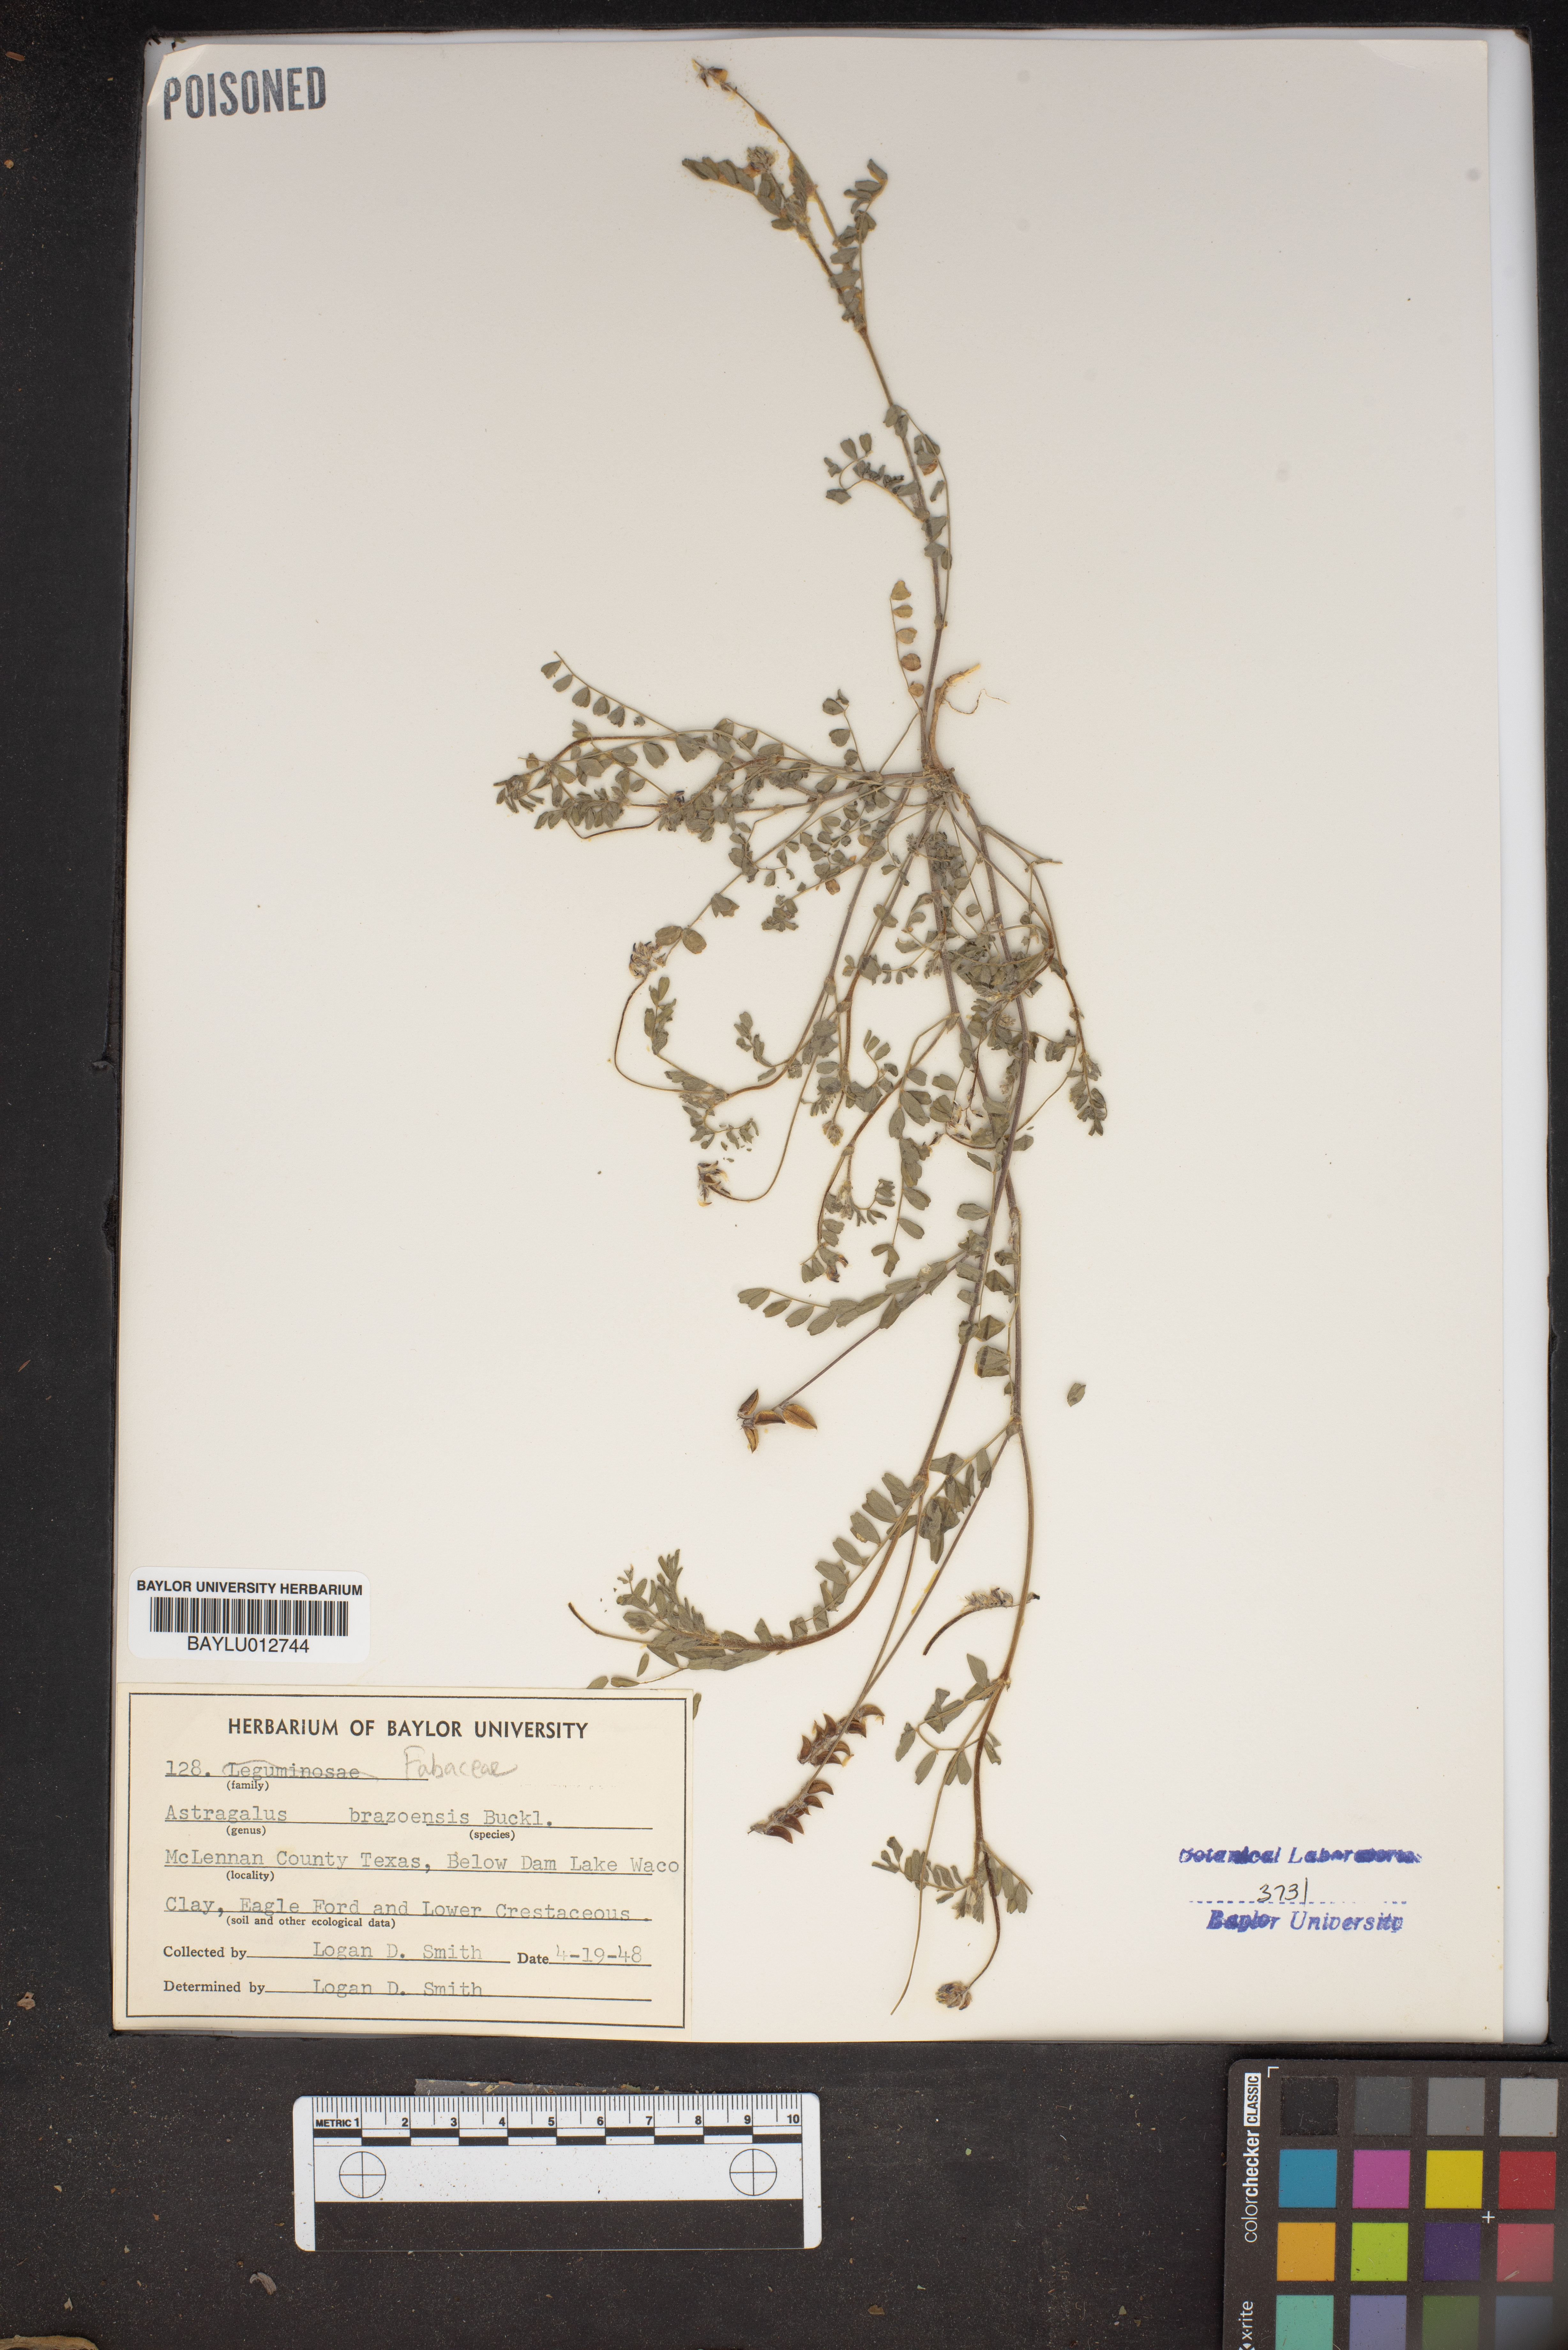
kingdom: Plantae
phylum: Tracheophyta
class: Magnoliopsida
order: Fabales
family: Fabaceae
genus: Astragalus
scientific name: Astragalus brazoensis
